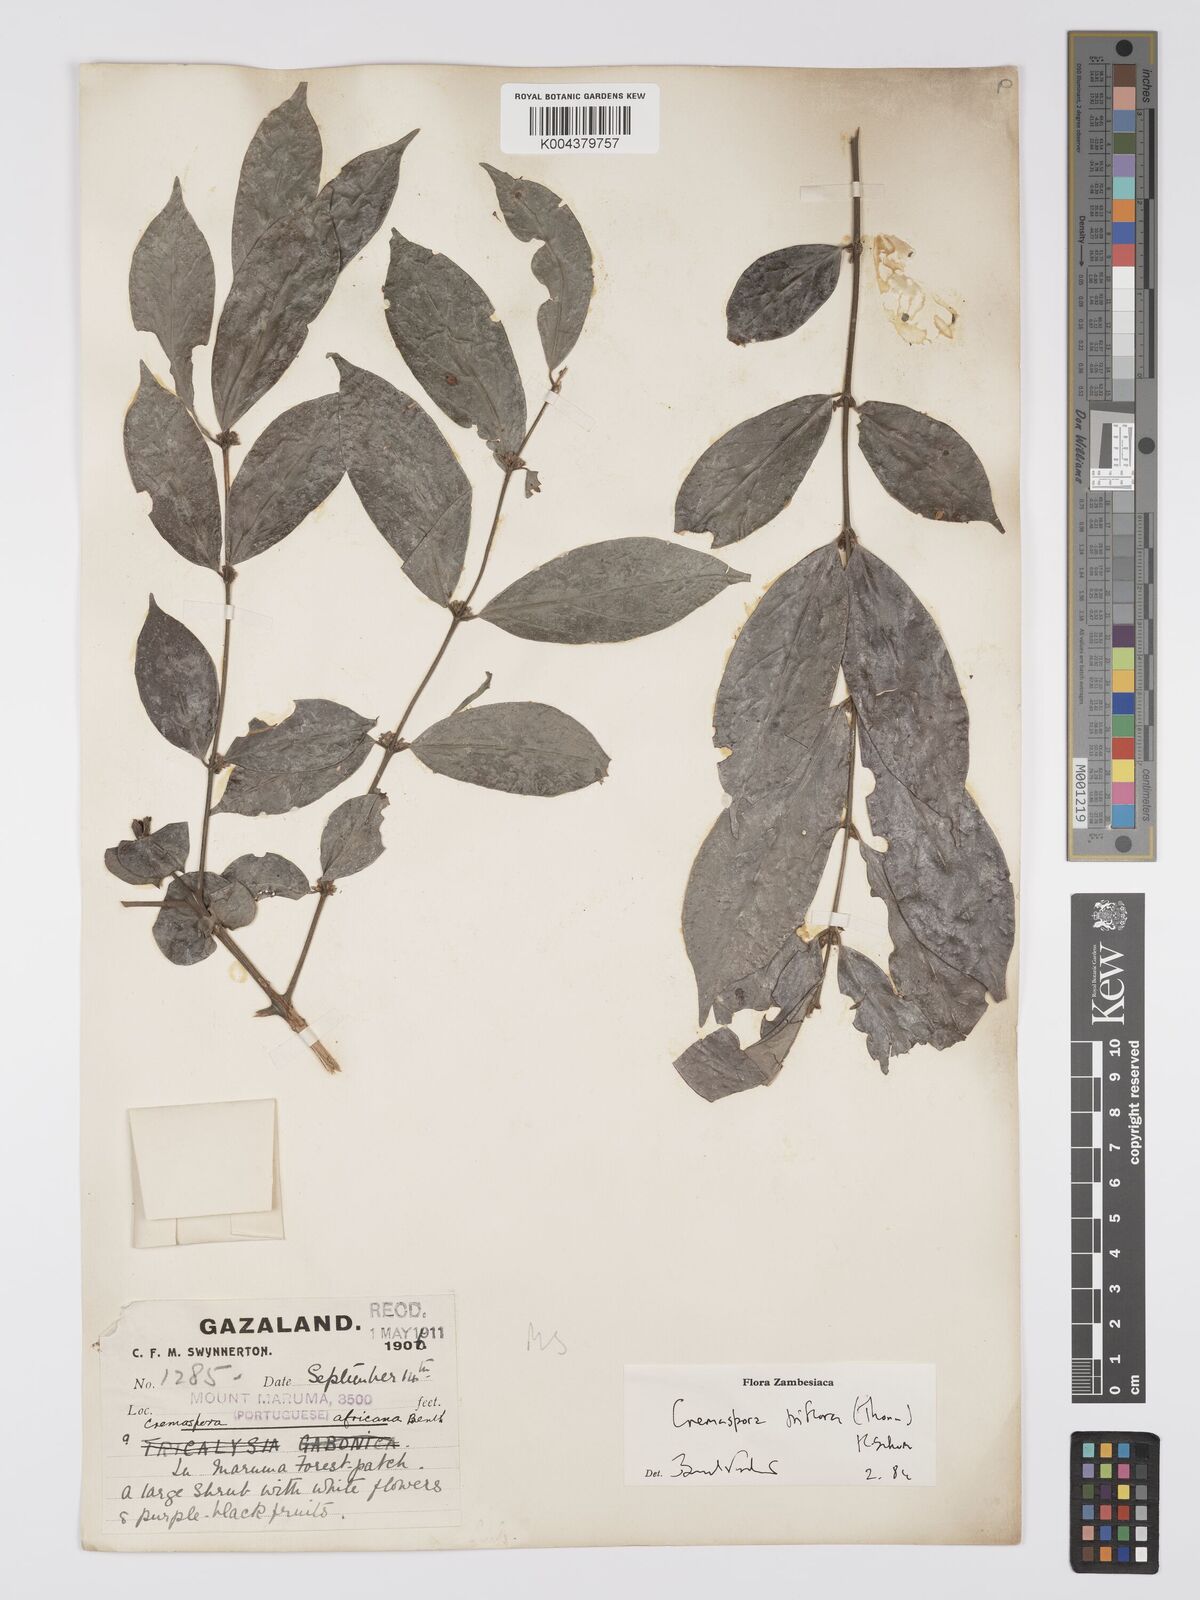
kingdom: Plantae
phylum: Tracheophyta
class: Magnoliopsida
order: Gentianales
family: Rubiaceae
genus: Cremaspora
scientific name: Cremaspora triflora
